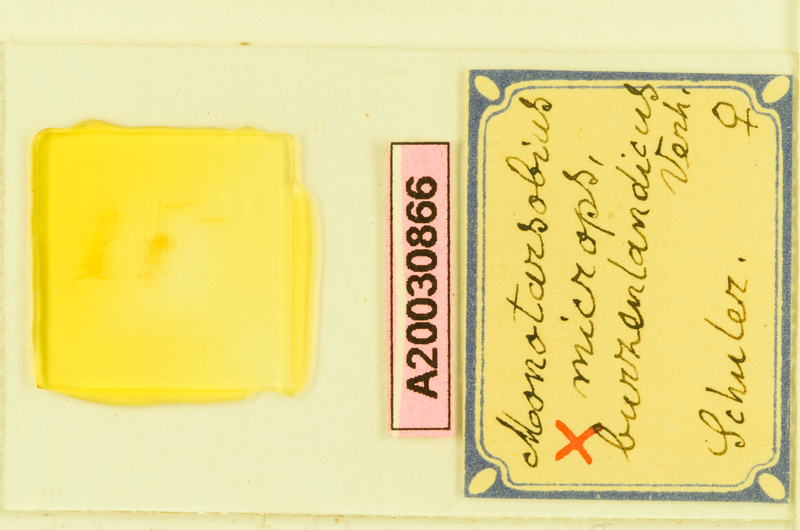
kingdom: Animalia
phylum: Arthropoda
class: Chilopoda
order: Lithobiomorpha
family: Lithobiidae
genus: Monotarsobius
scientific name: Monotarsobius microps
